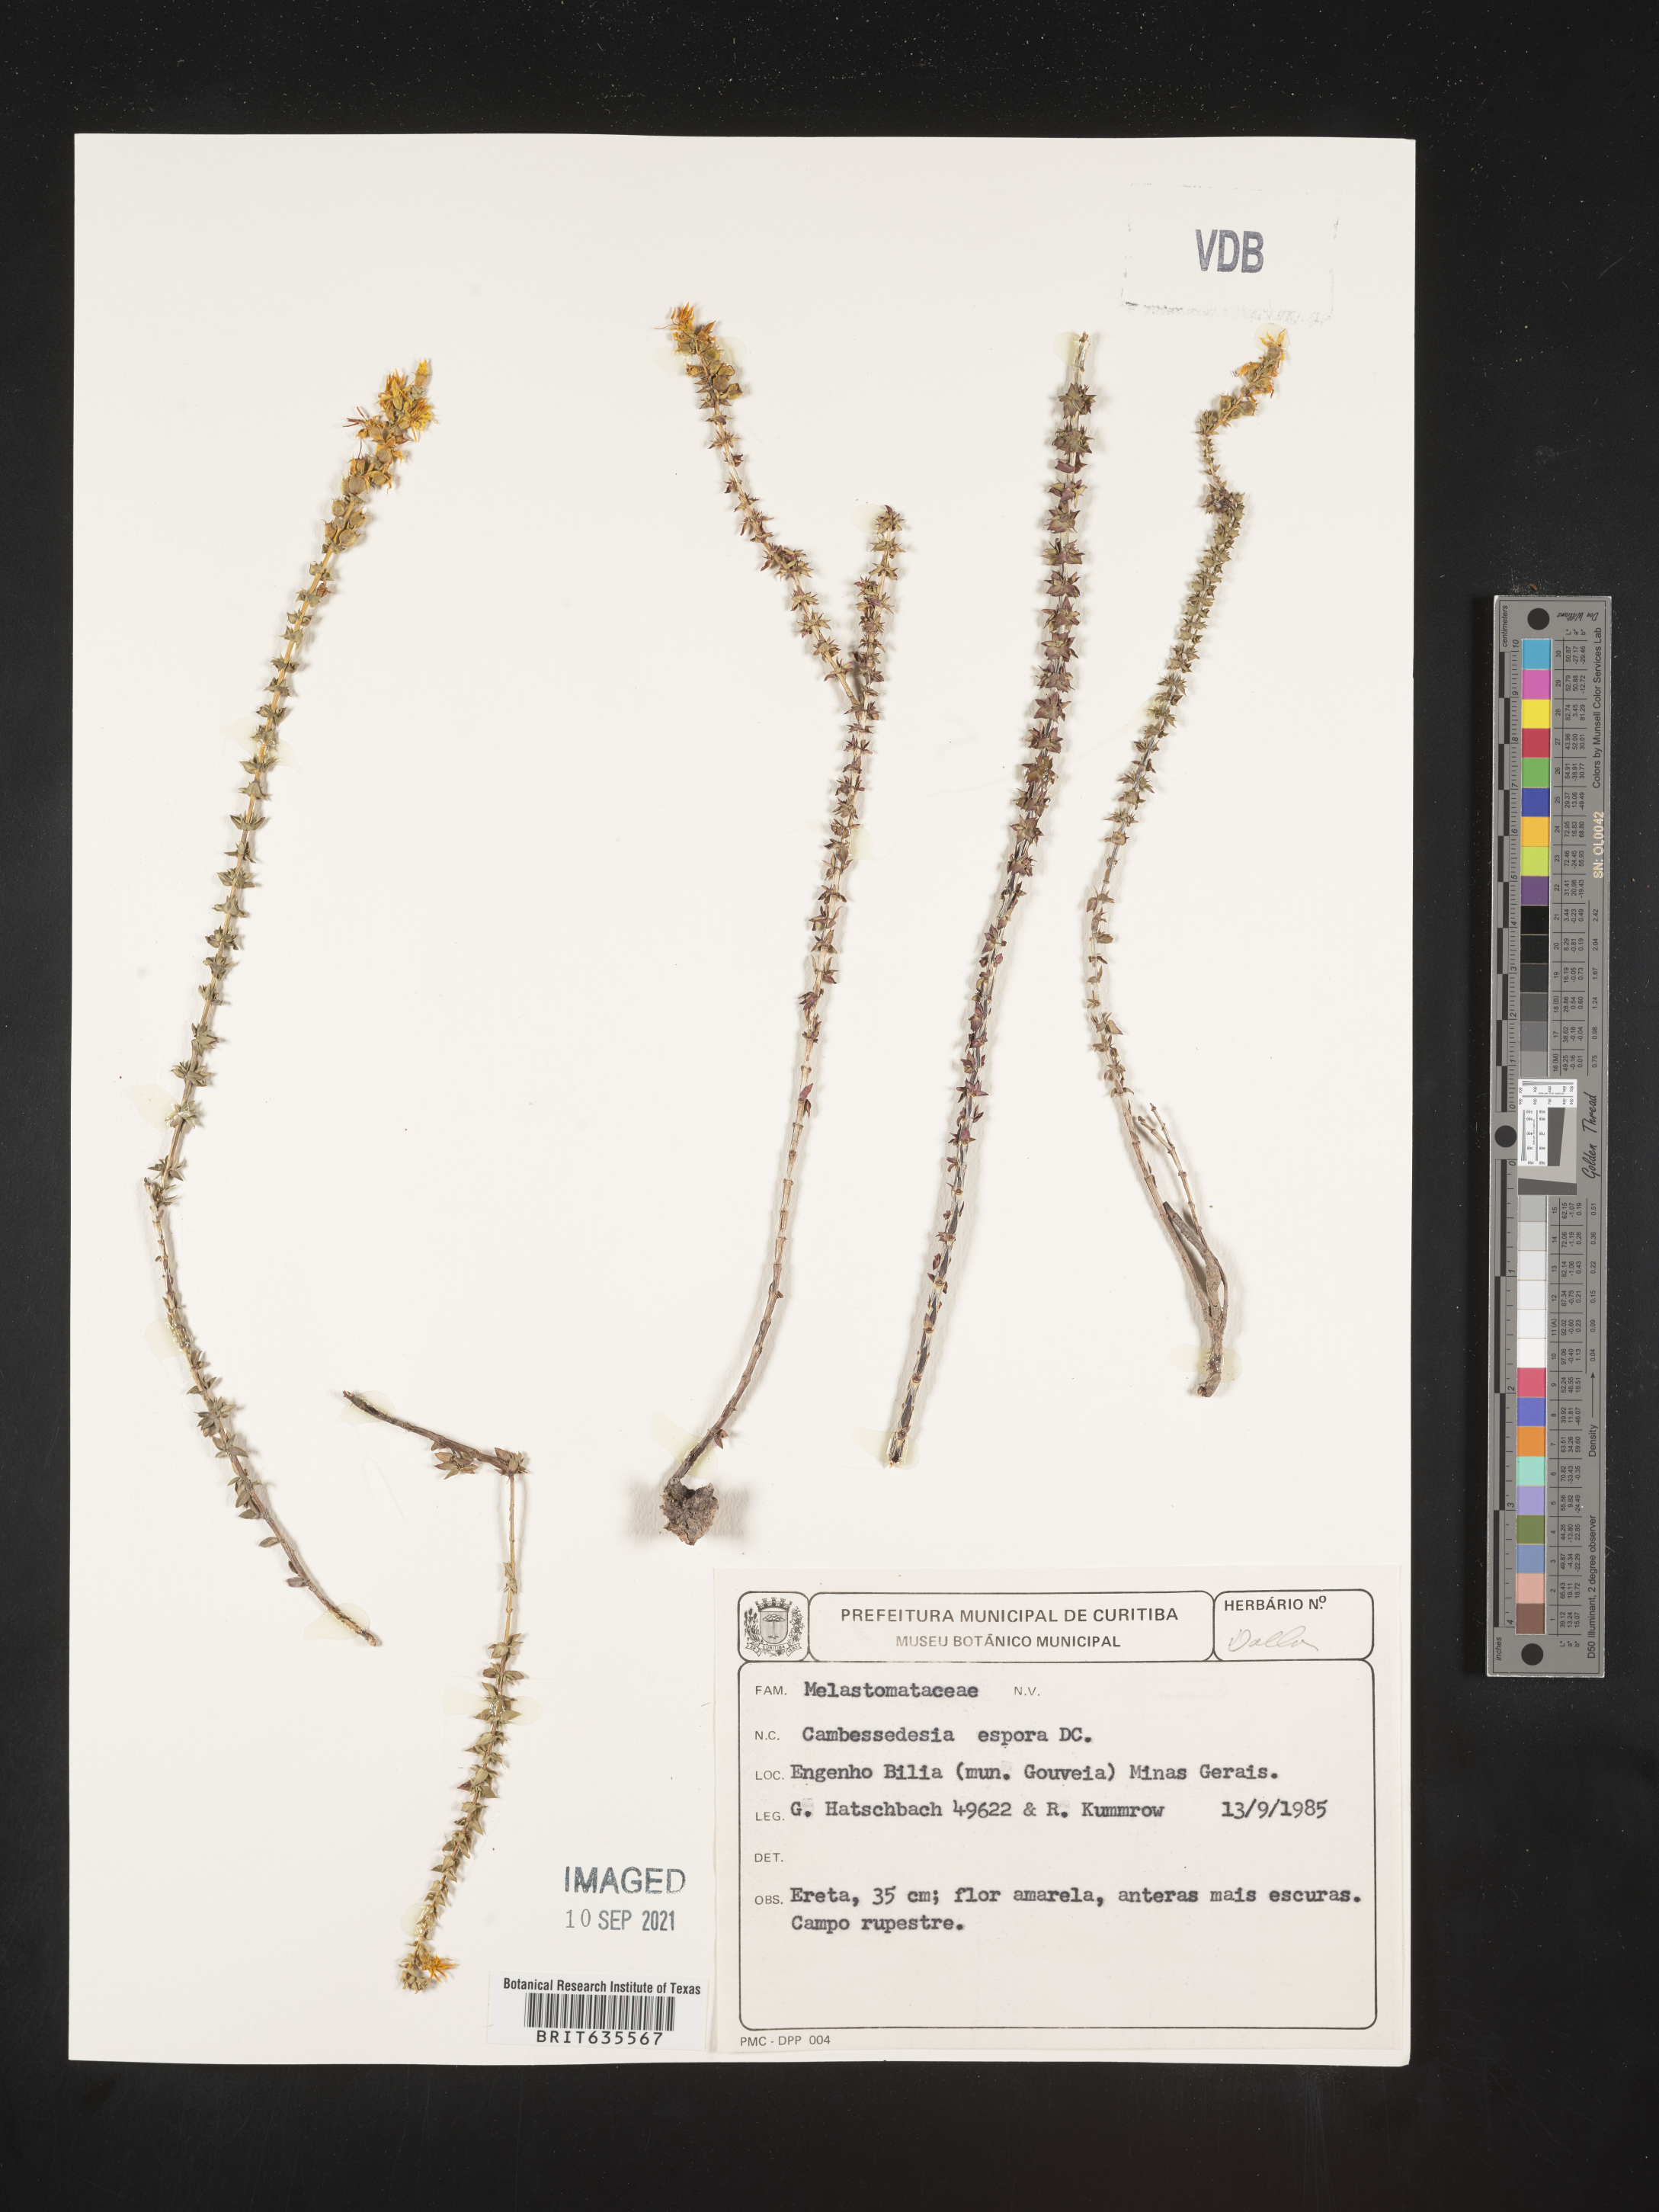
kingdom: Plantae
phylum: Tracheophyta
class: Magnoliopsida
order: Myrtales
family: Melastomataceae
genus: Cambessedesia
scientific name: Cambessedesia
